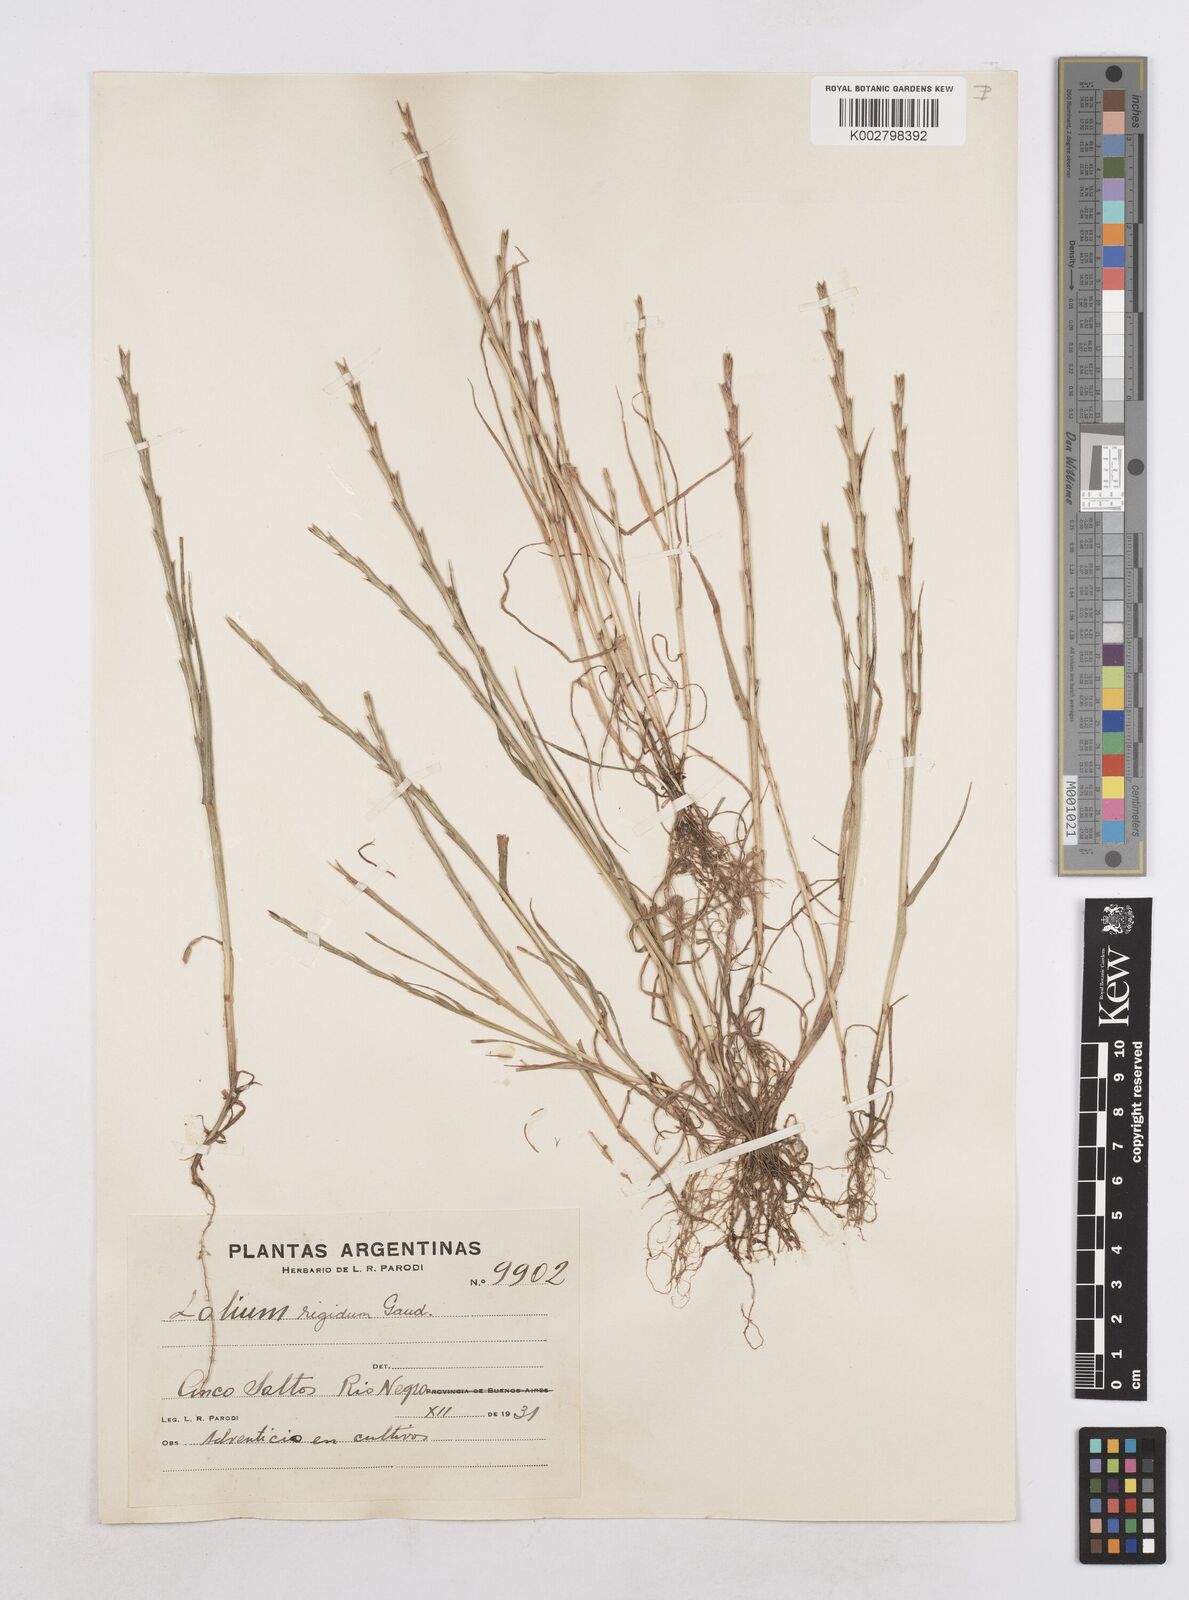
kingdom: Plantae
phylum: Tracheophyta
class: Liliopsida
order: Poales
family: Poaceae
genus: Lolium
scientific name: Lolium rigidum
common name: Wimmera ryegrass
